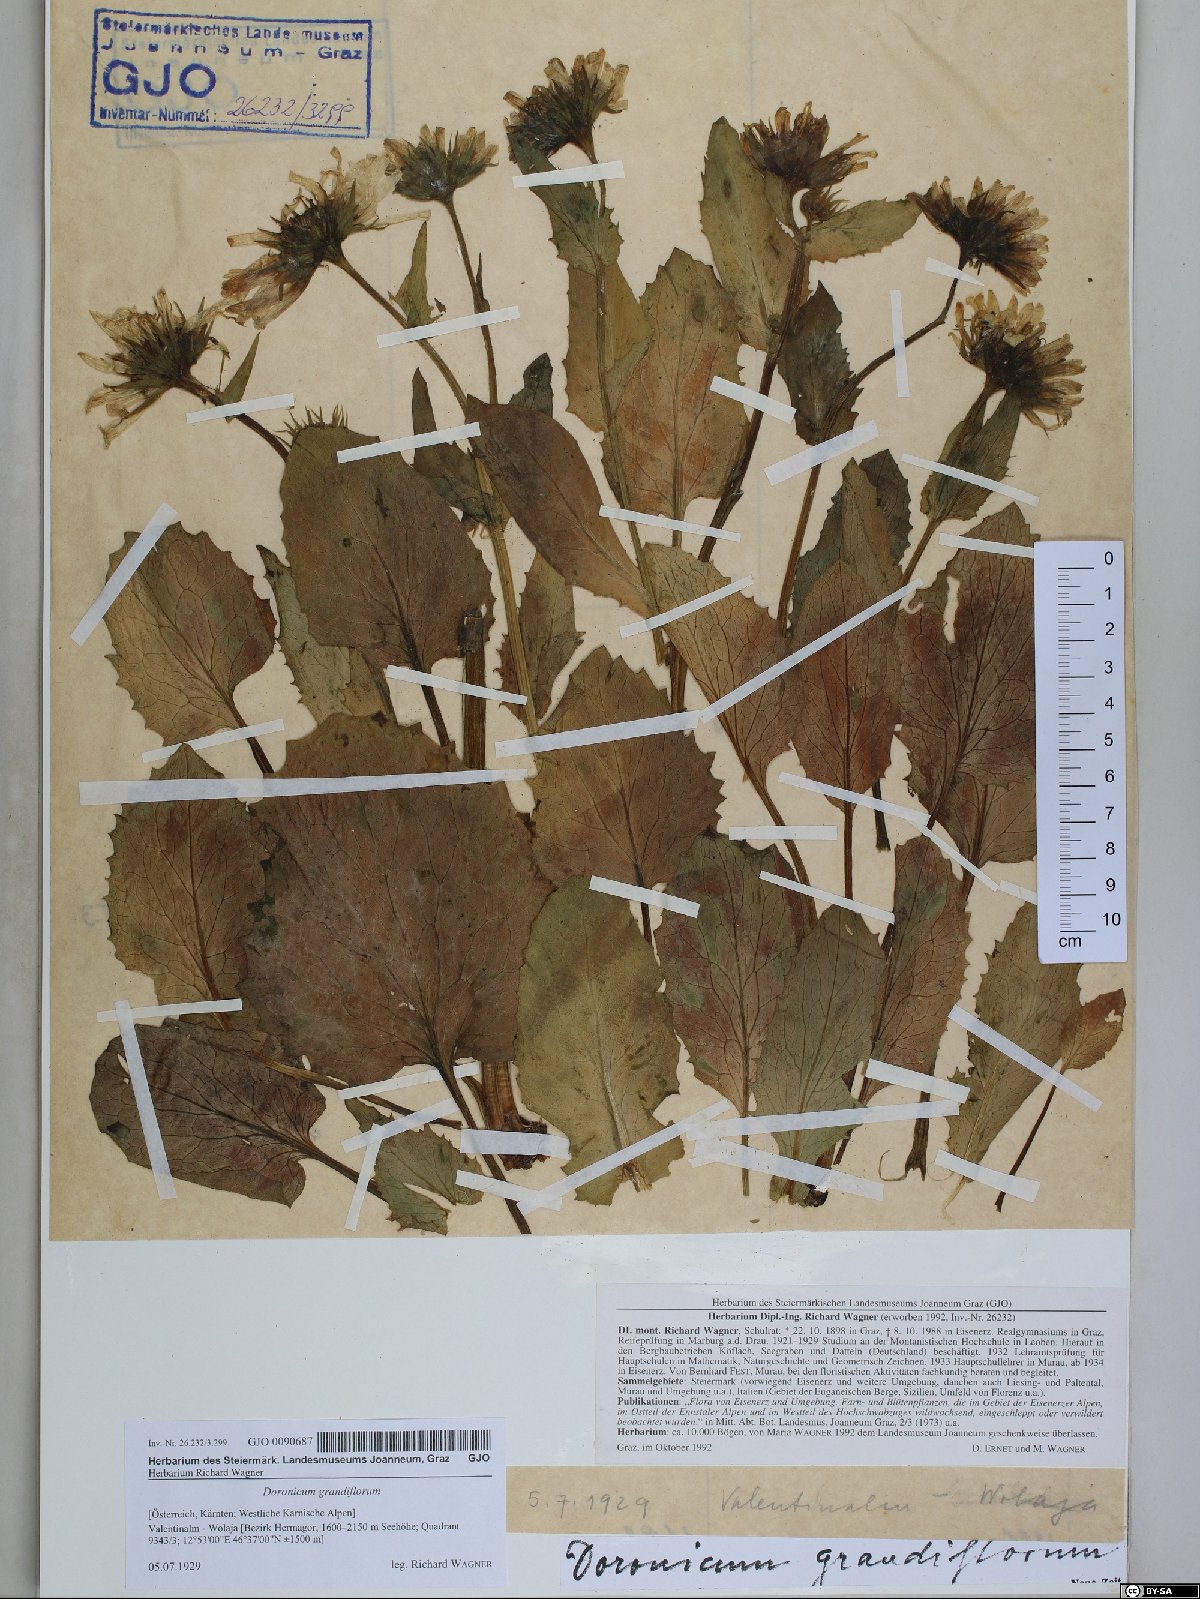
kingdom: Plantae
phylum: Tracheophyta
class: Magnoliopsida
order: Asterales
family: Asteraceae
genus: Doronicum
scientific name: Doronicum grandiflorum
